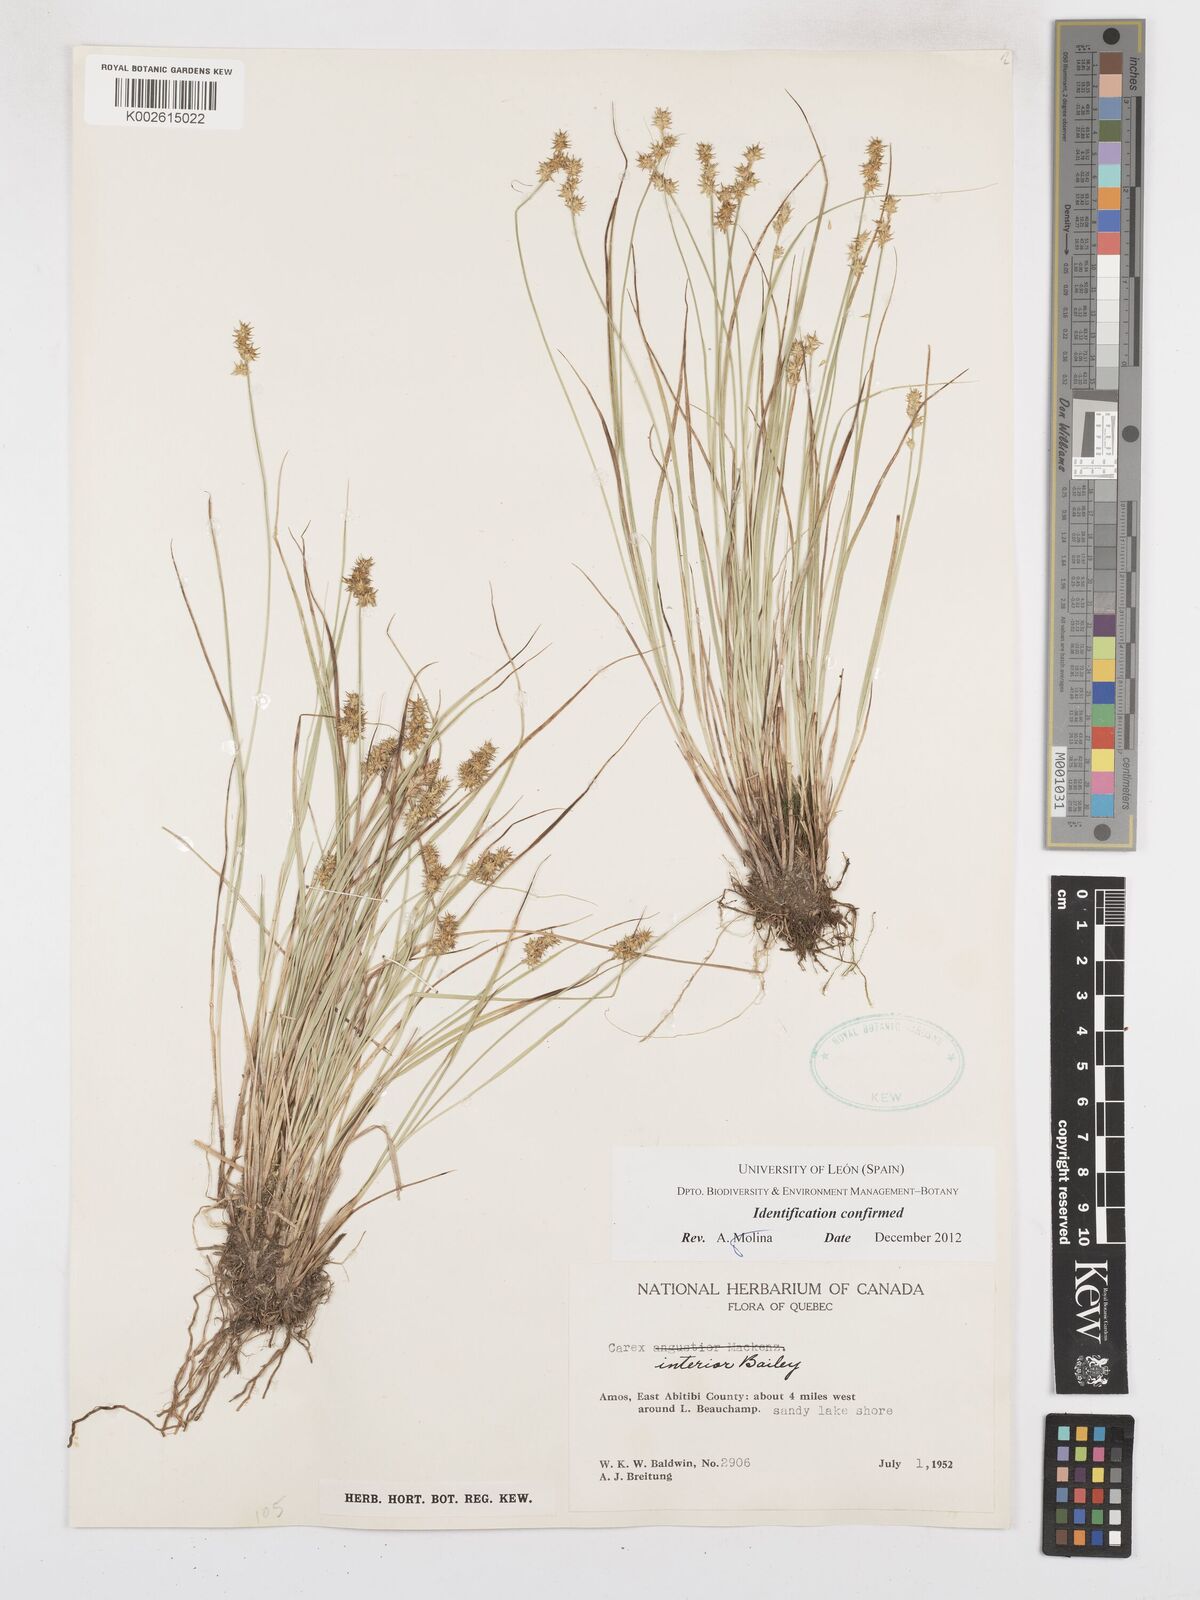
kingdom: Plantae
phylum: Tracheophyta
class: Liliopsida
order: Poales
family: Cyperaceae
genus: Carex
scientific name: Carex interior
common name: Inland sedge
